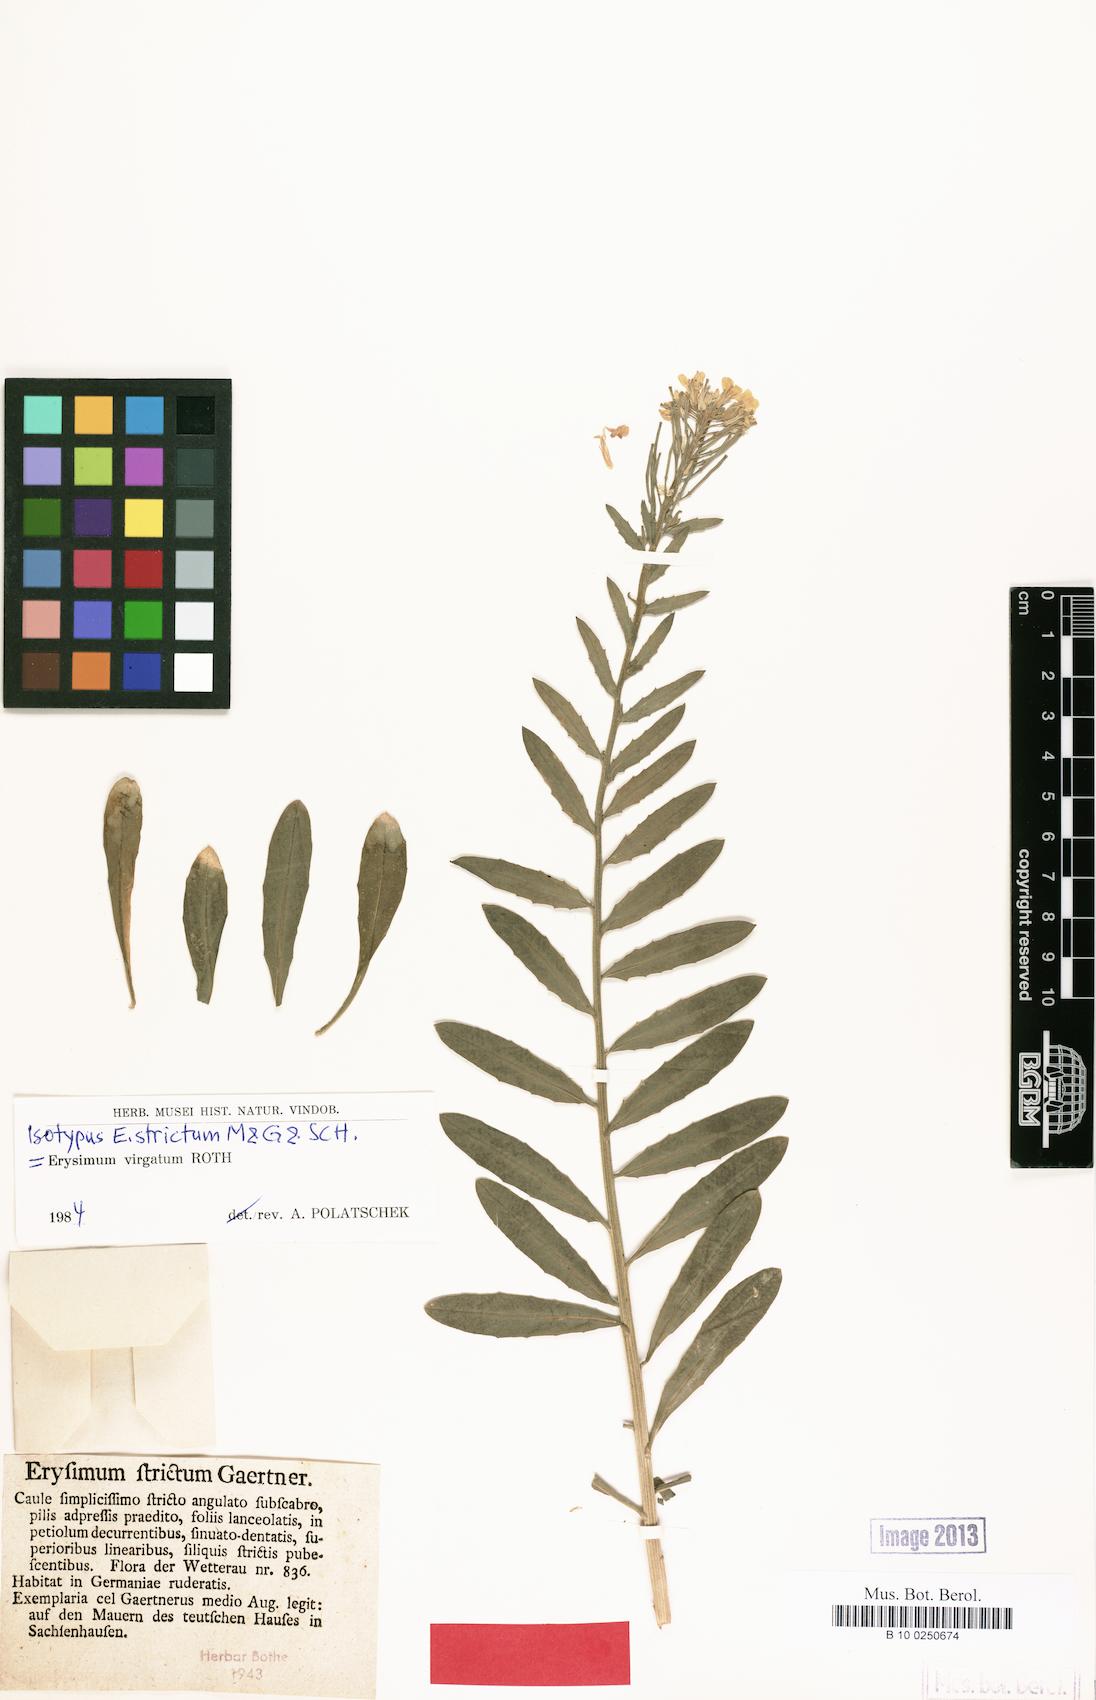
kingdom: Plantae
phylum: Tracheophyta
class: Magnoliopsida
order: Brassicales
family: Brassicaceae
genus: Erysimum
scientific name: Erysimum strictum
